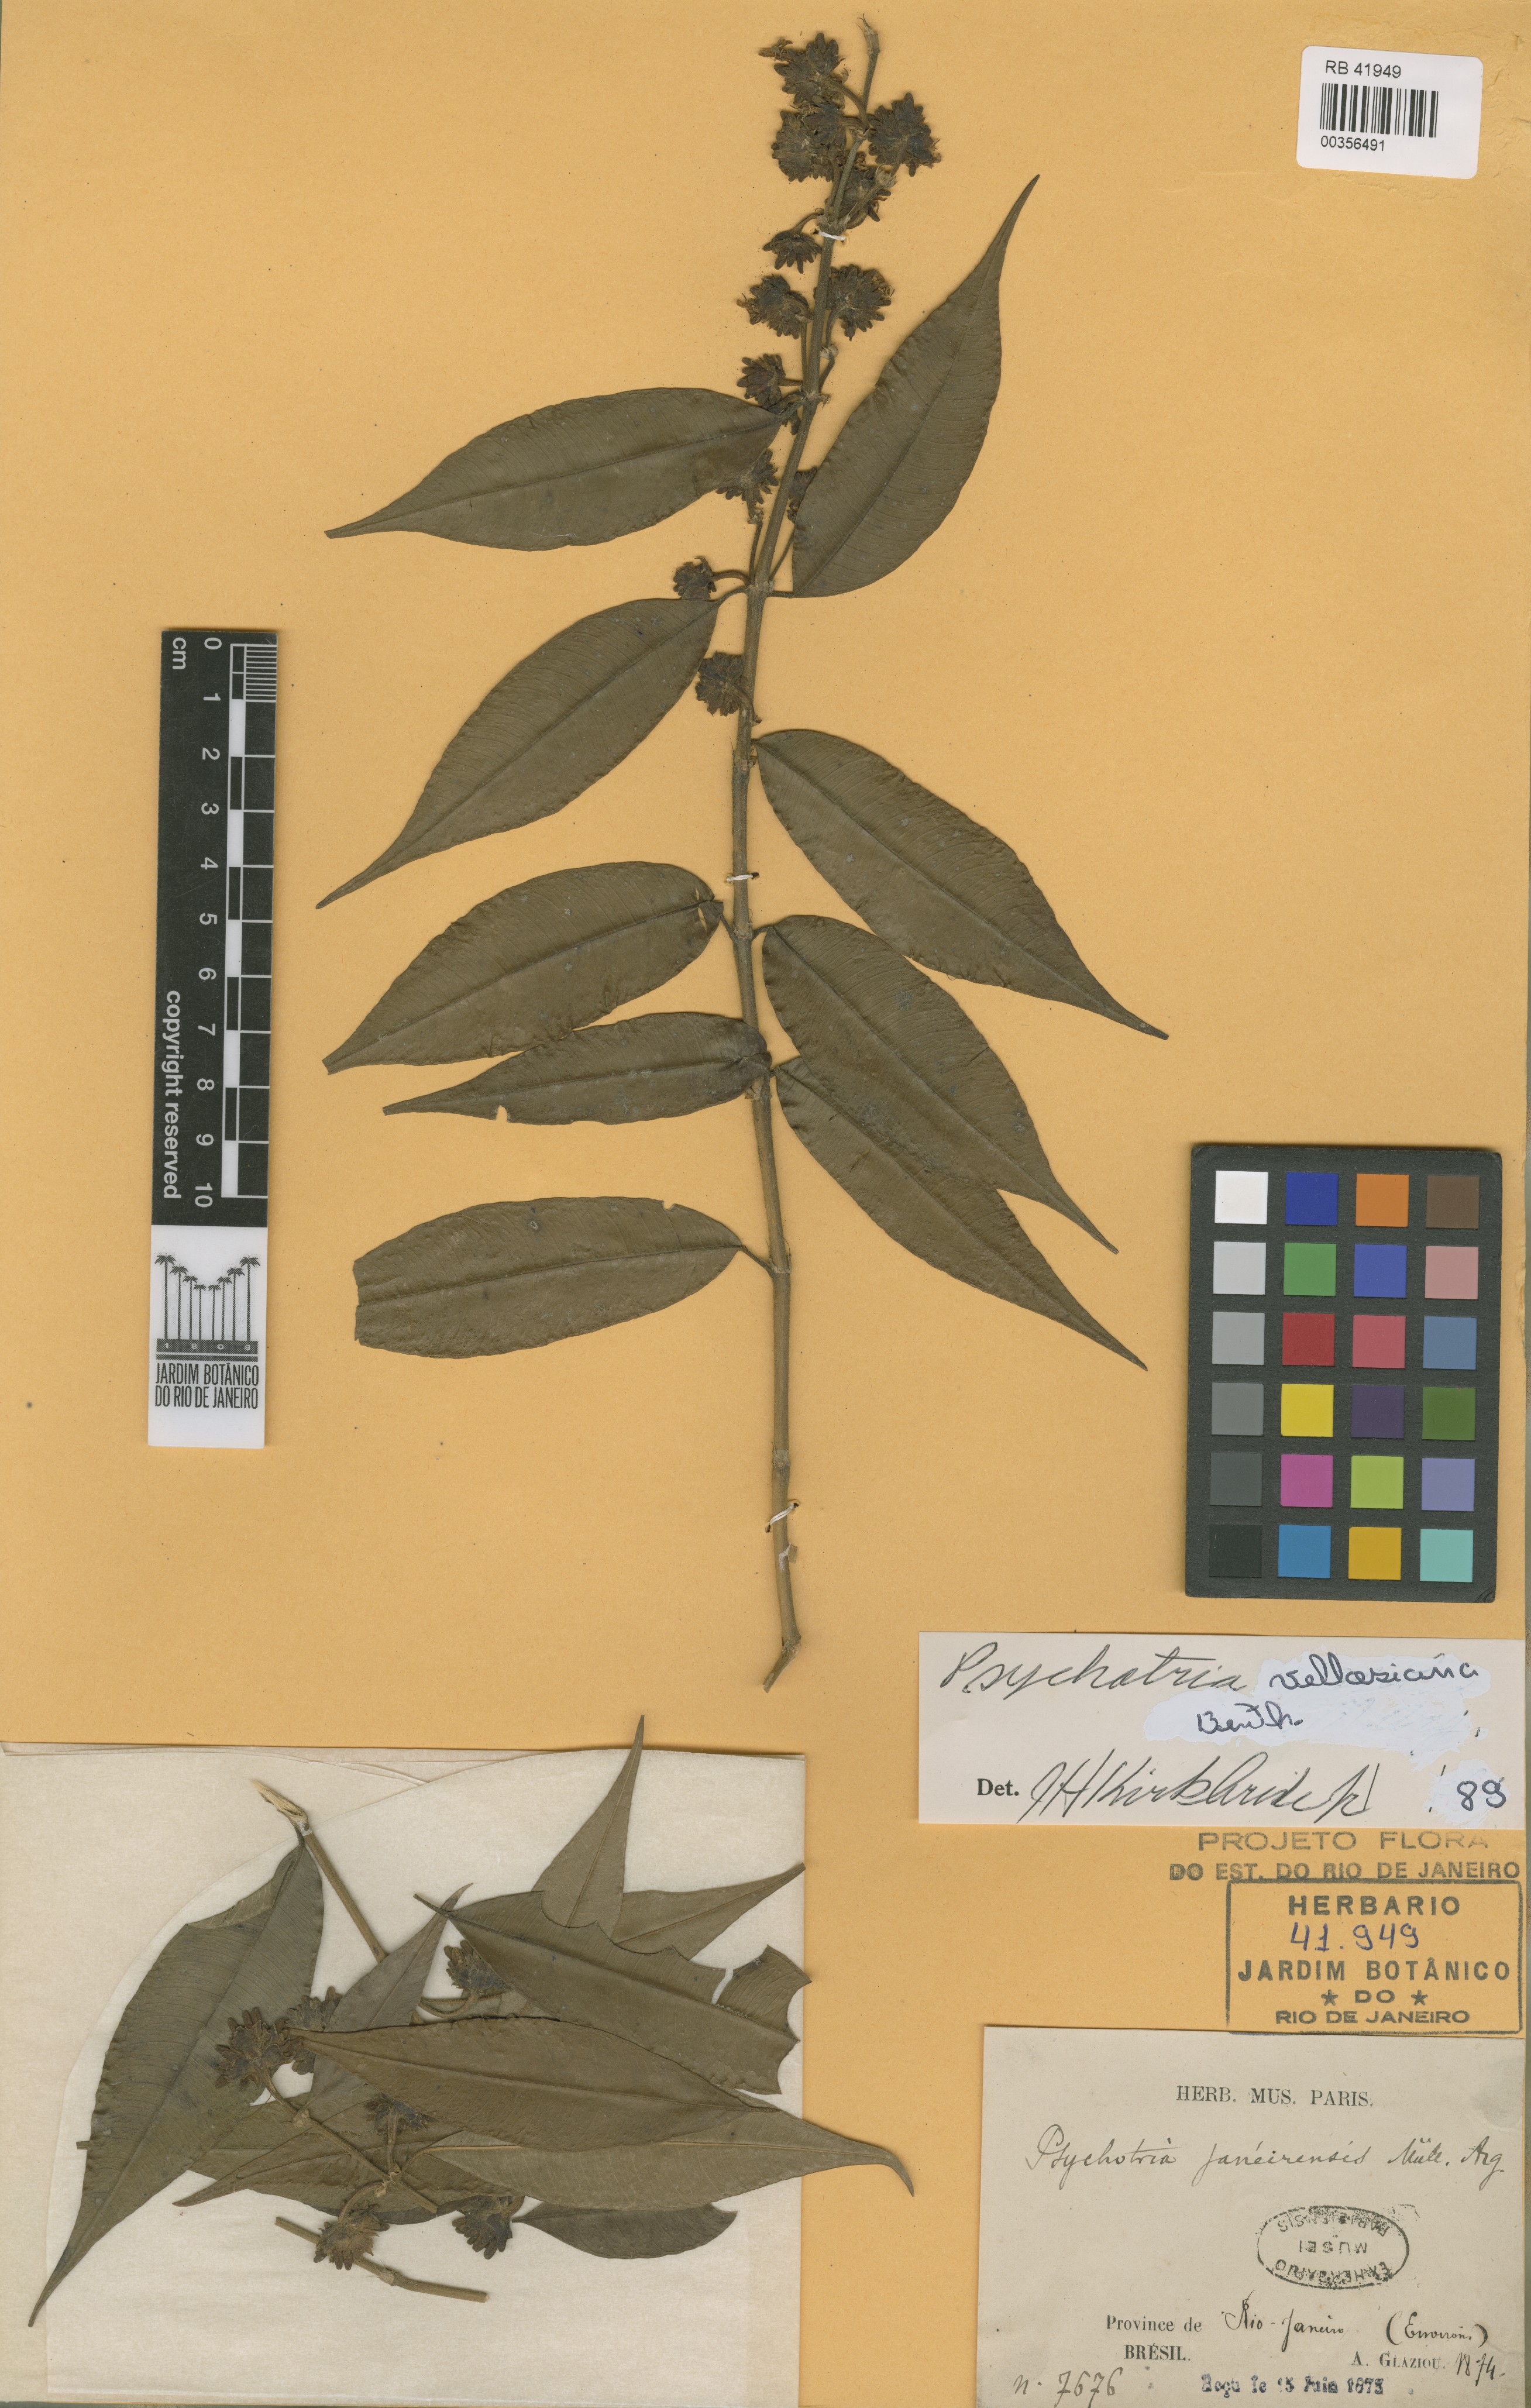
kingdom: Plantae
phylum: Tracheophyta
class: Magnoliopsida
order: Gentianales
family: Rubiaceae
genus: Palicourea
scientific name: Palicourea sessilis
